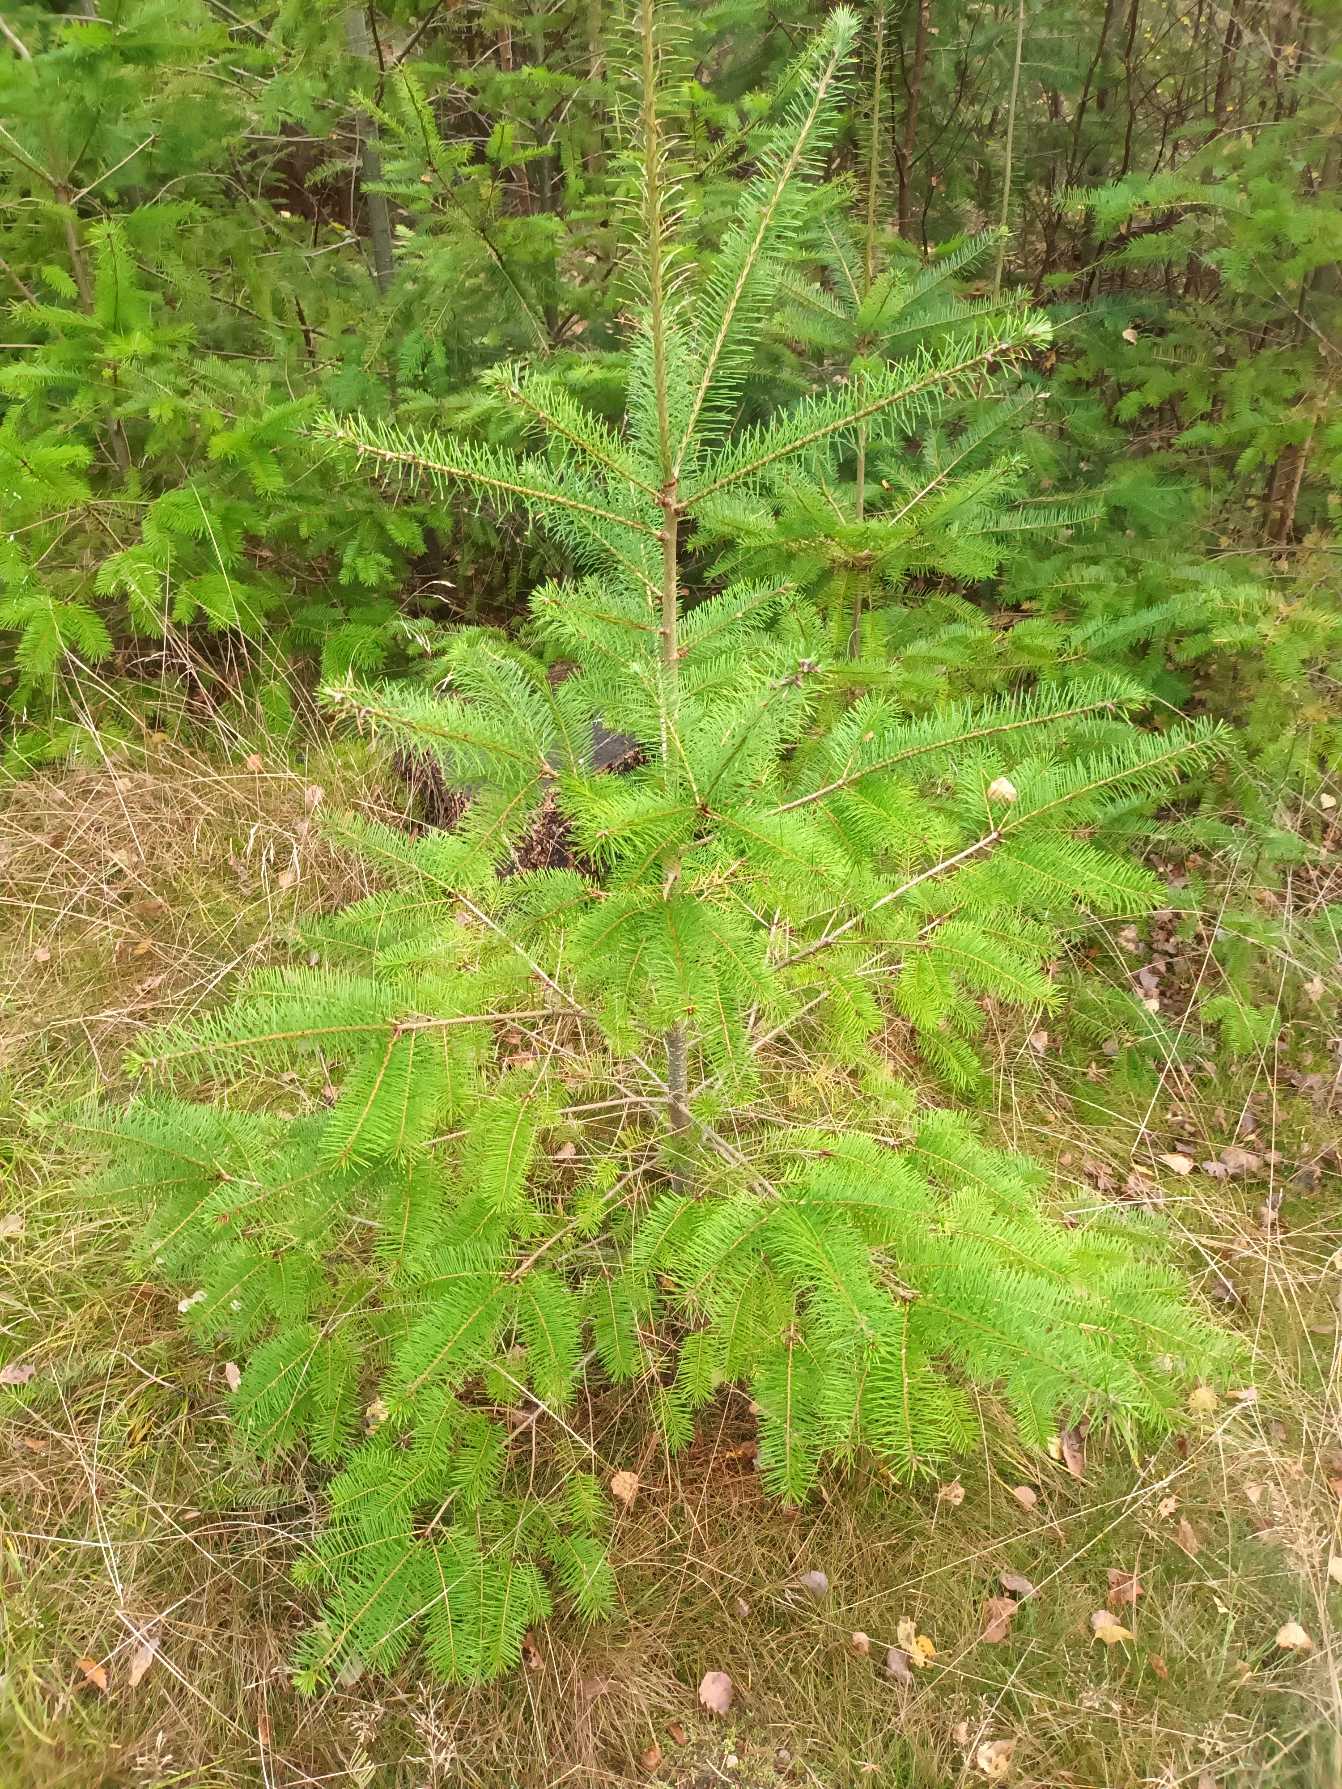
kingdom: Plantae
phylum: Tracheophyta
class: Pinopsida
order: Pinales
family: Pinaceae
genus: Pseudotsuga
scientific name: Pseudotsuga menziesii
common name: Douglasgran
